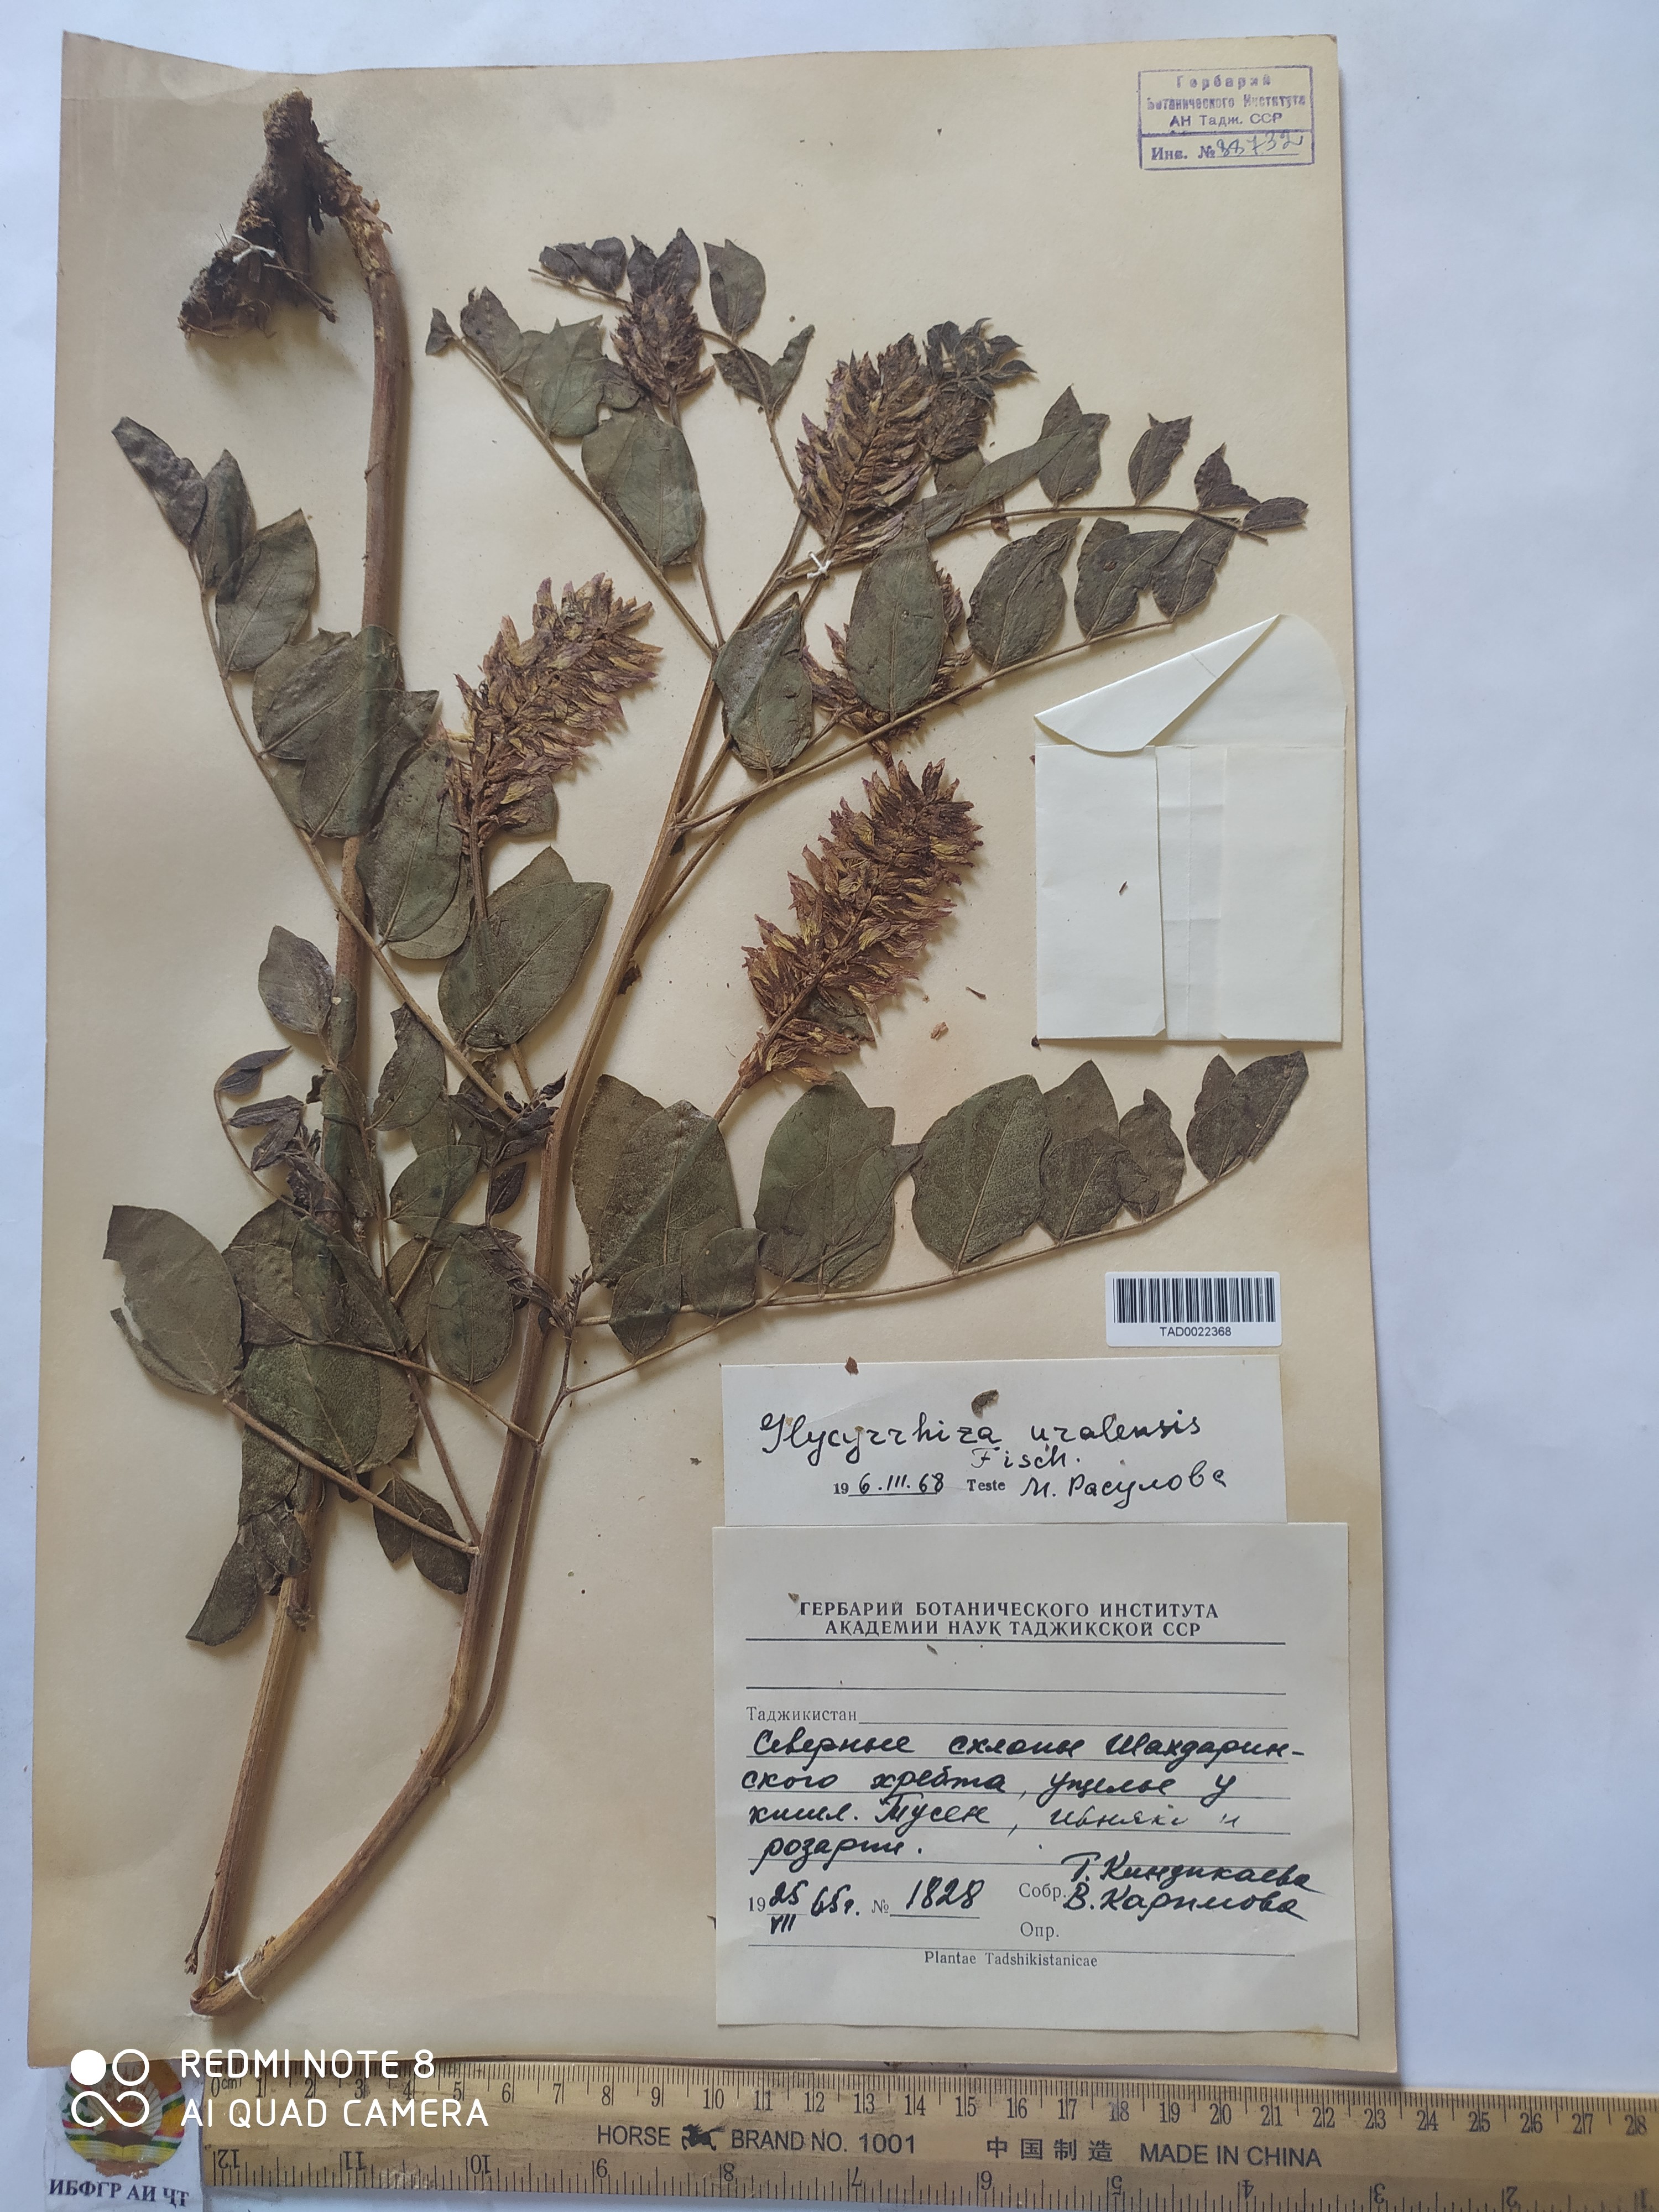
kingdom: Plantae
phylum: Tracheophyta
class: Magnoliopsida
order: Fabales
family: Fabaceae
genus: Glycyrrhiza
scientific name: Glycyrrhiza uralensis
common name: Chinese licorice
